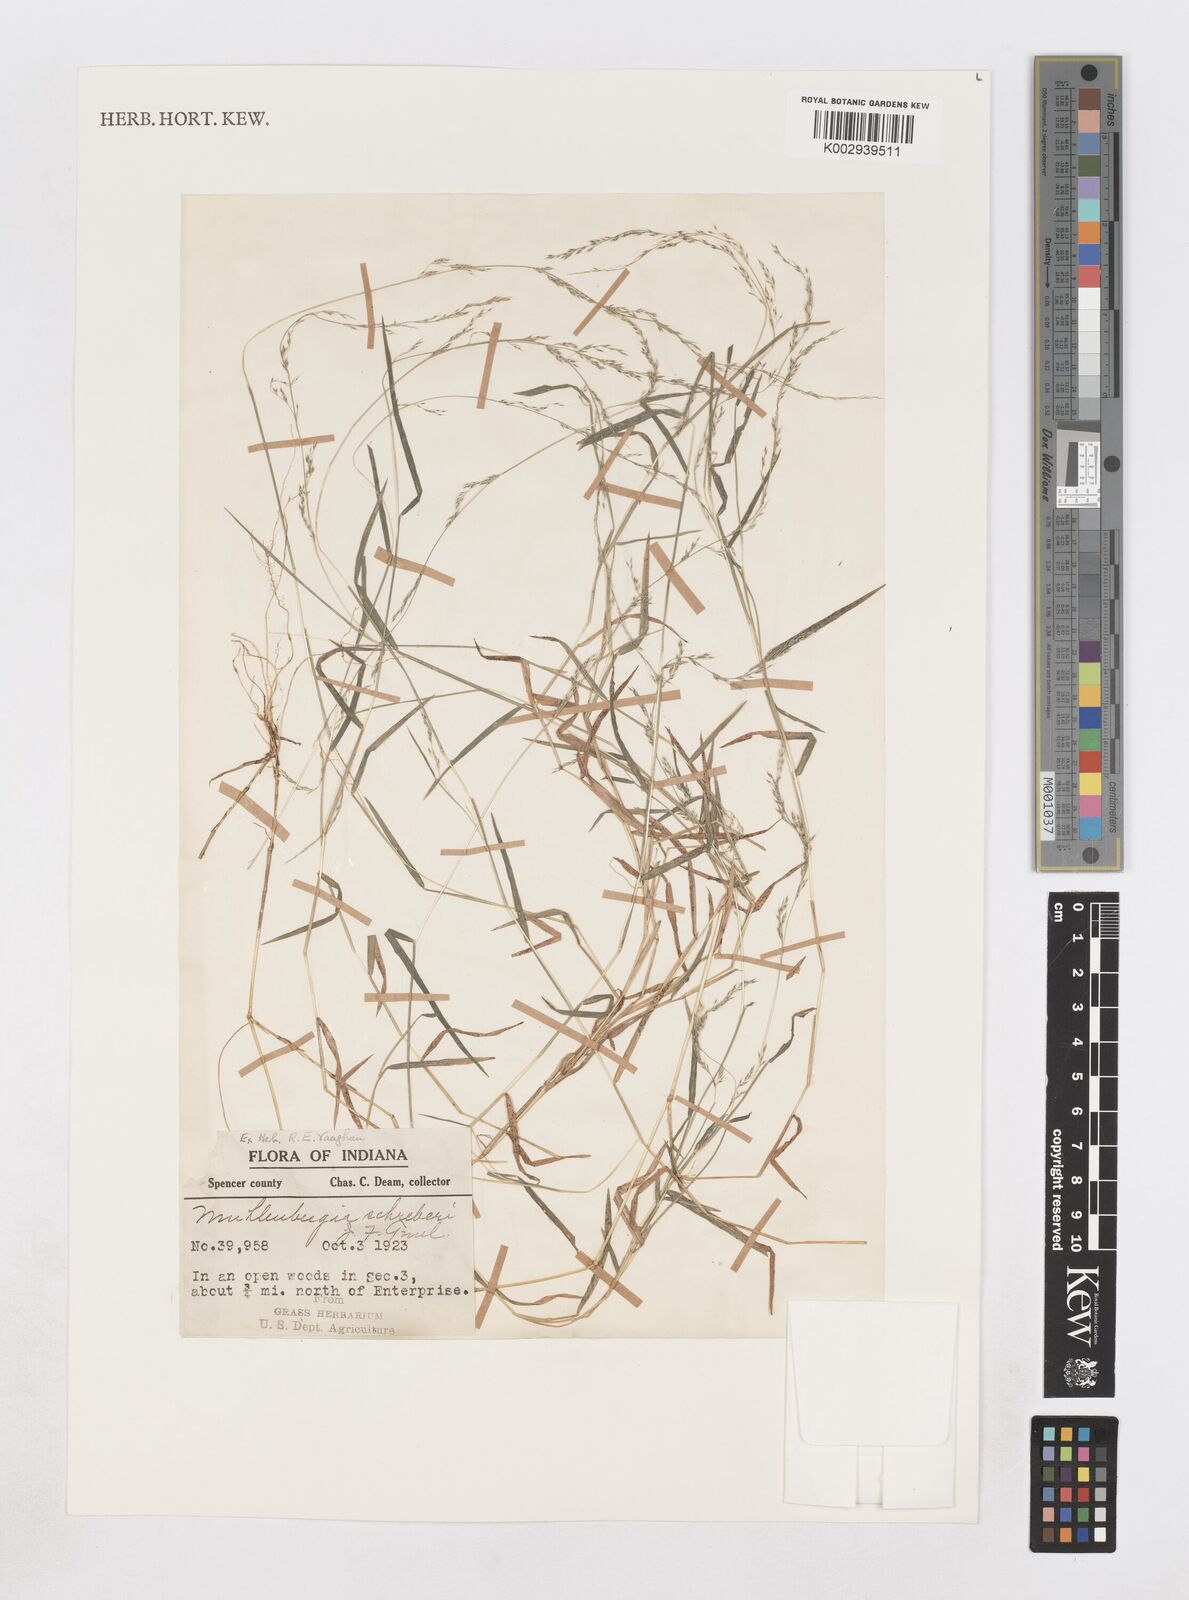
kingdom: Plantae
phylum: Tracheophyta
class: Liliopsida
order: Poales
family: Poaceae
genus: Muhlenbergia
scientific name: Muhlenbergia schreberi
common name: Nimblewill
